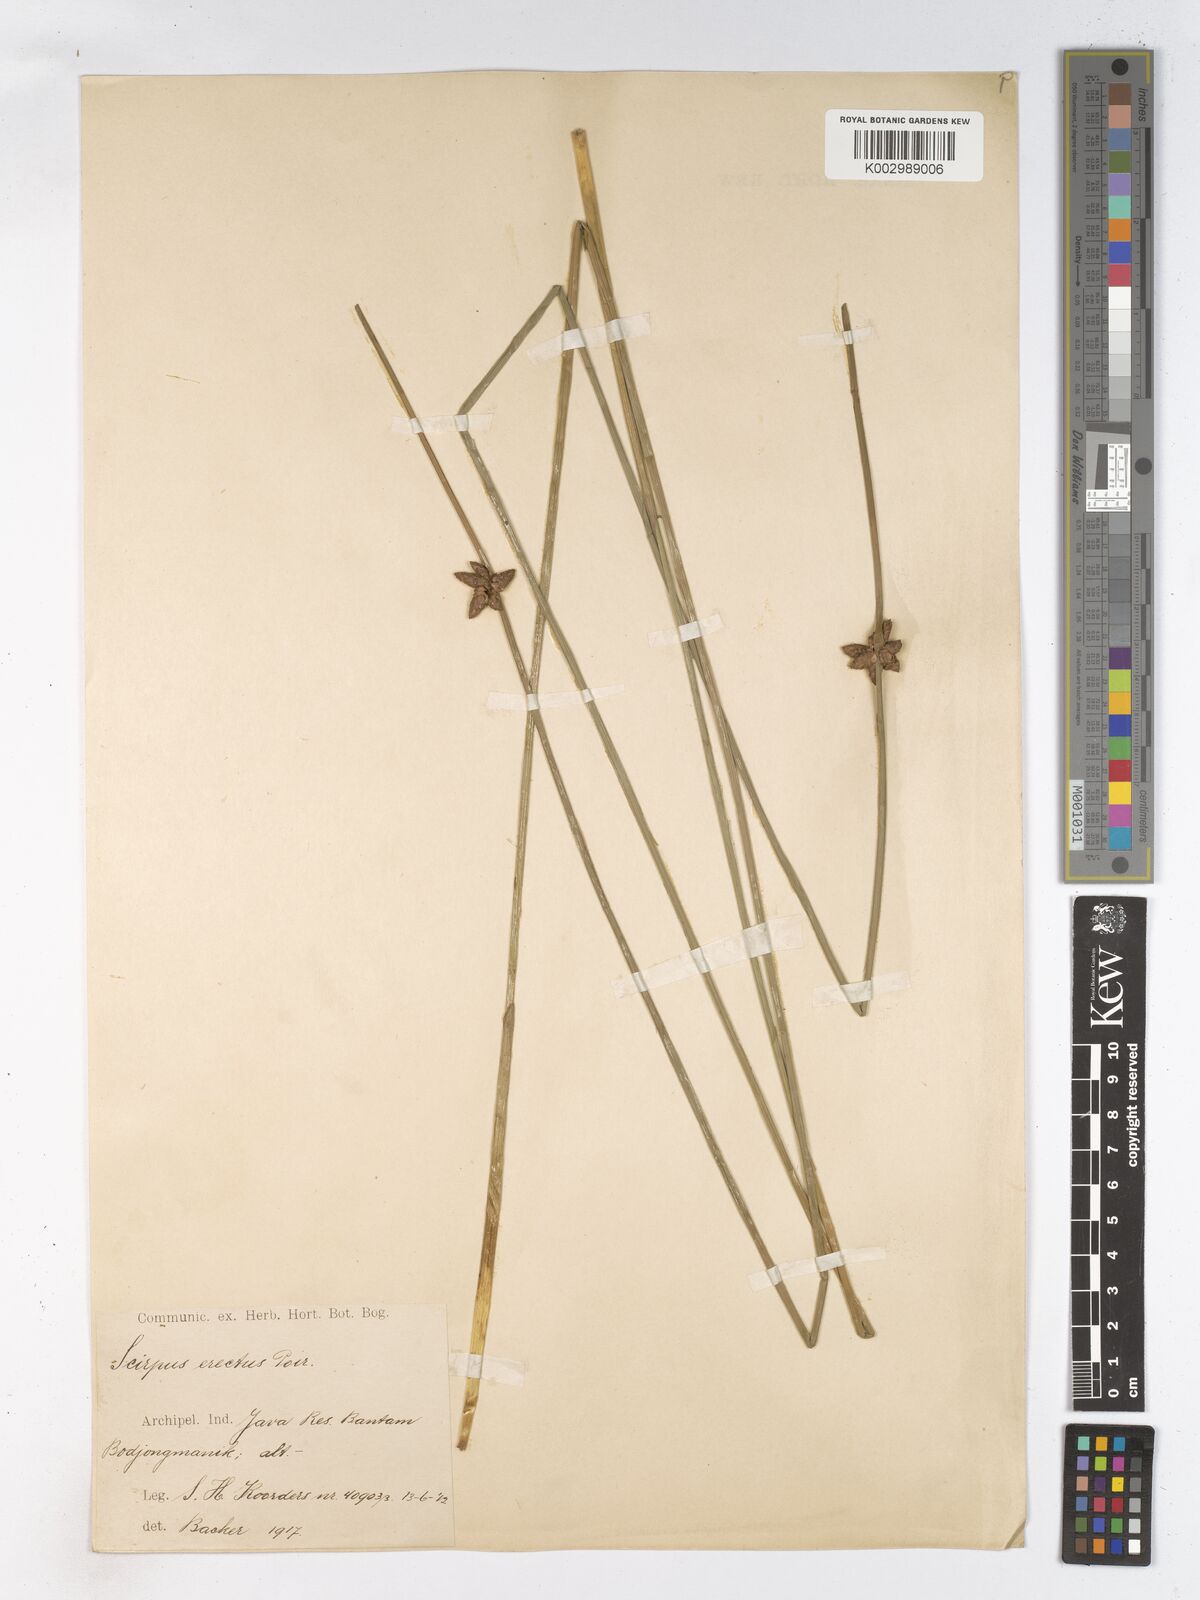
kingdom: Plantae
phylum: Tracheophyta
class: Liliopsida
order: Poales
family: Cyperaceae
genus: Schoenoplectiella
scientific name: Schoenoplectiella juncoides
